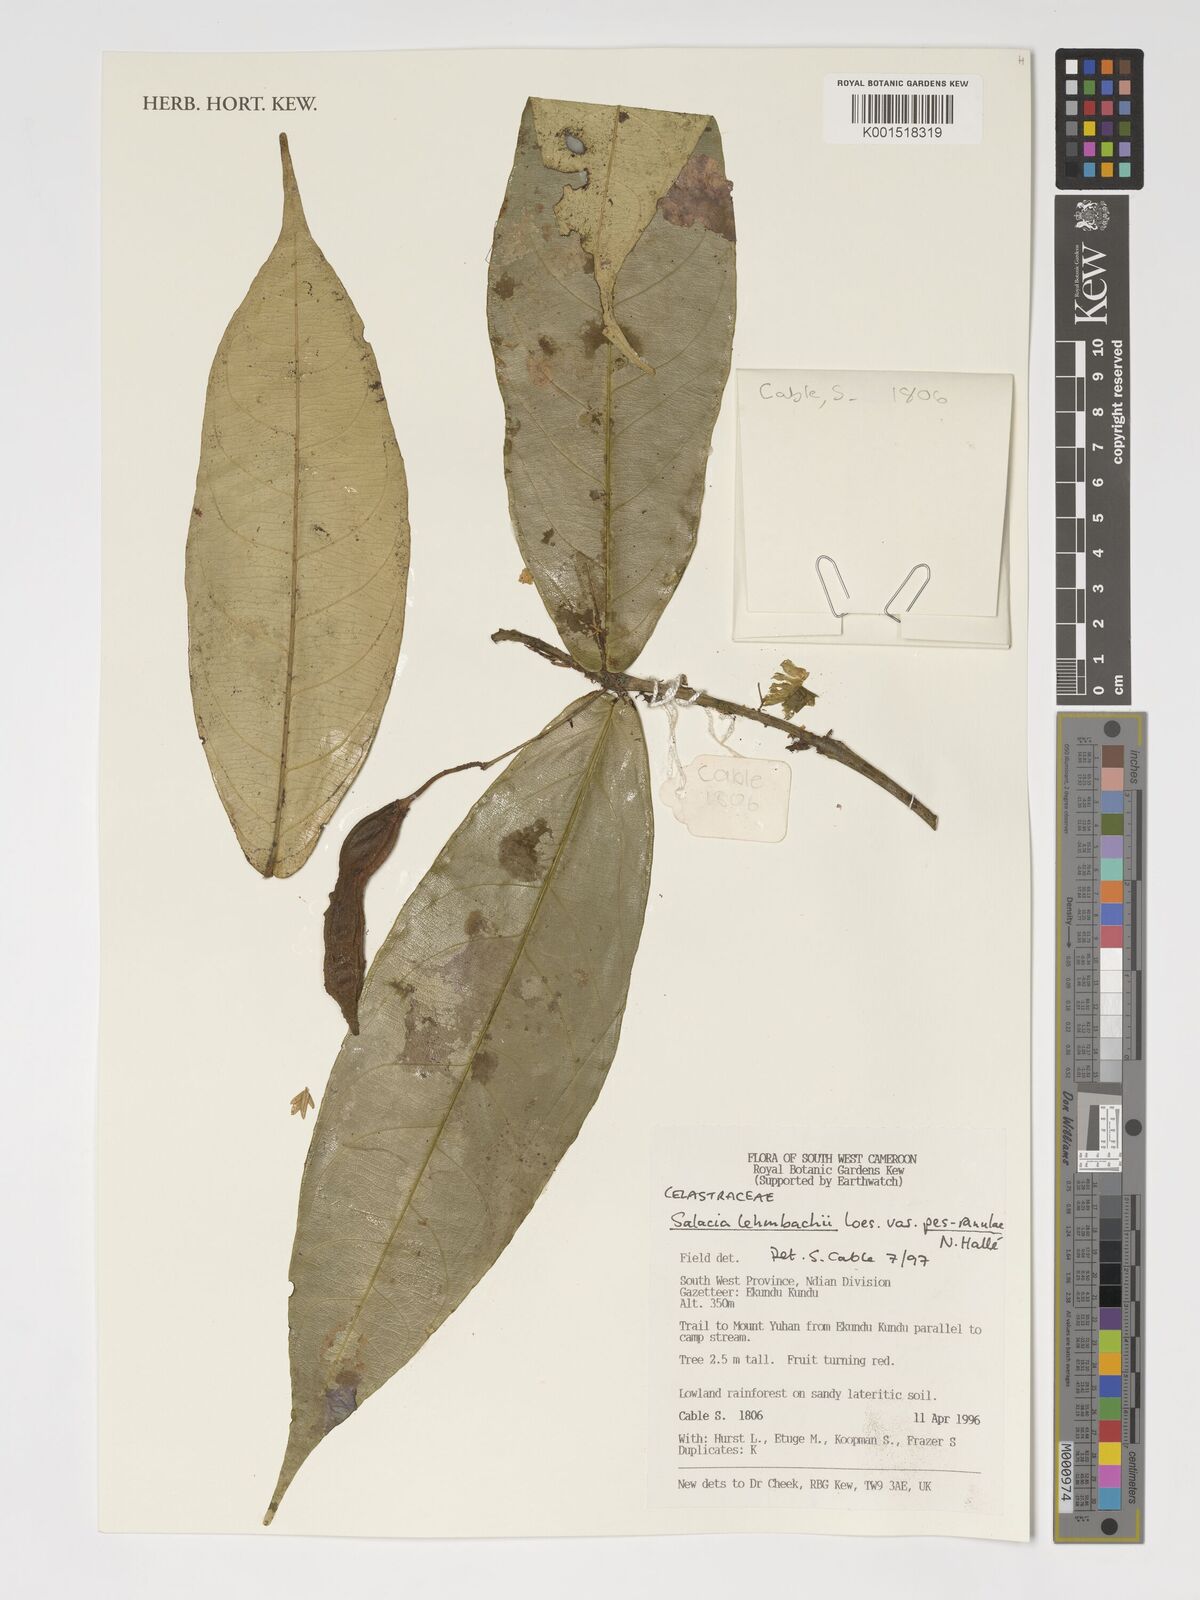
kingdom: Plantae
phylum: Tracheophyta
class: Magnoliopsida
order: Celastrales
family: Celastraceae
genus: Salacia
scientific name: Salacia lehmbachii
